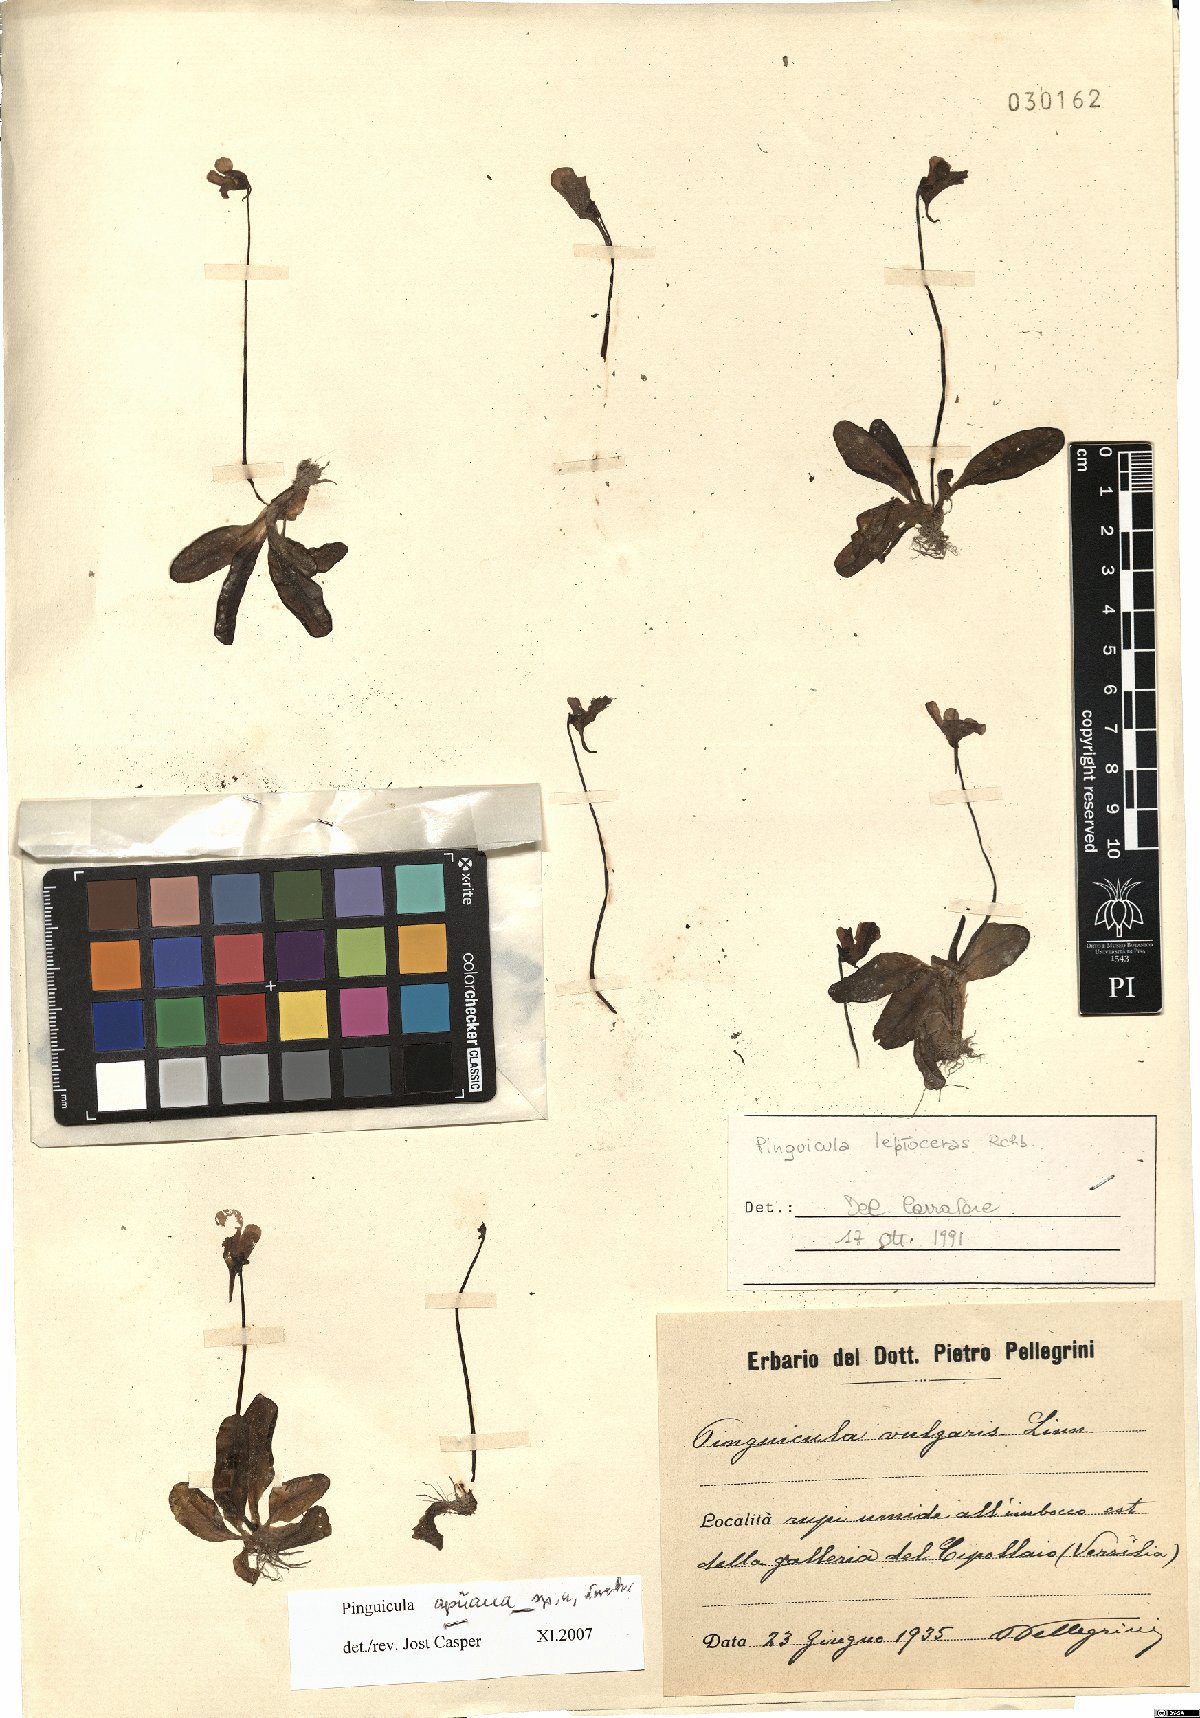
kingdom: Plantae
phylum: Tracheophyta
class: Magnoliopsida
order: Lamiales
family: Lentibulariaceae
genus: Pinguicula
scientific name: Pinguicula apuana
